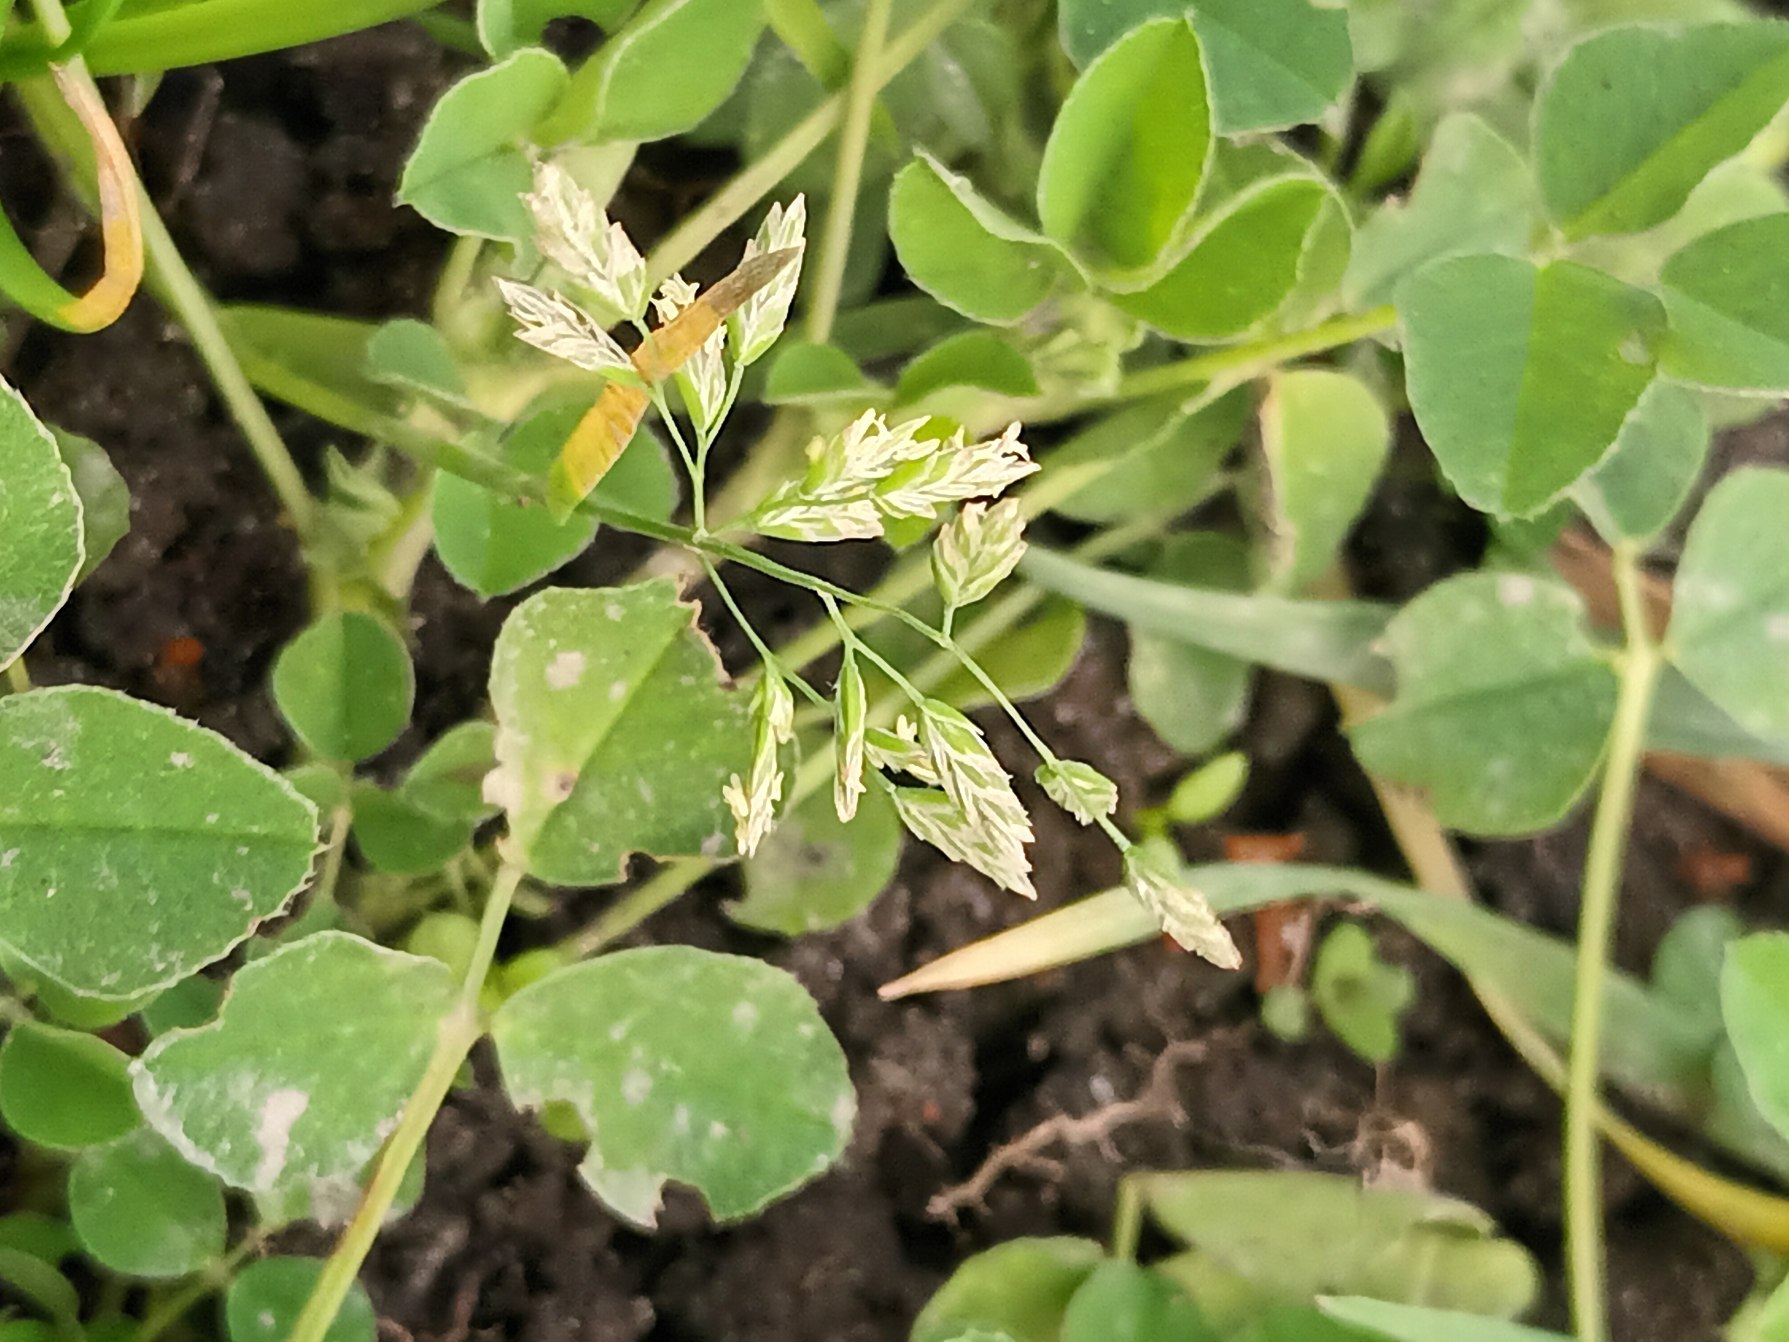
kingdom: Plantae
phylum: Tracheophyta
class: Liliopsida
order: Poales
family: Poaceae
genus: Poa
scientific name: Poa annua
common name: Enårig rapgræs
